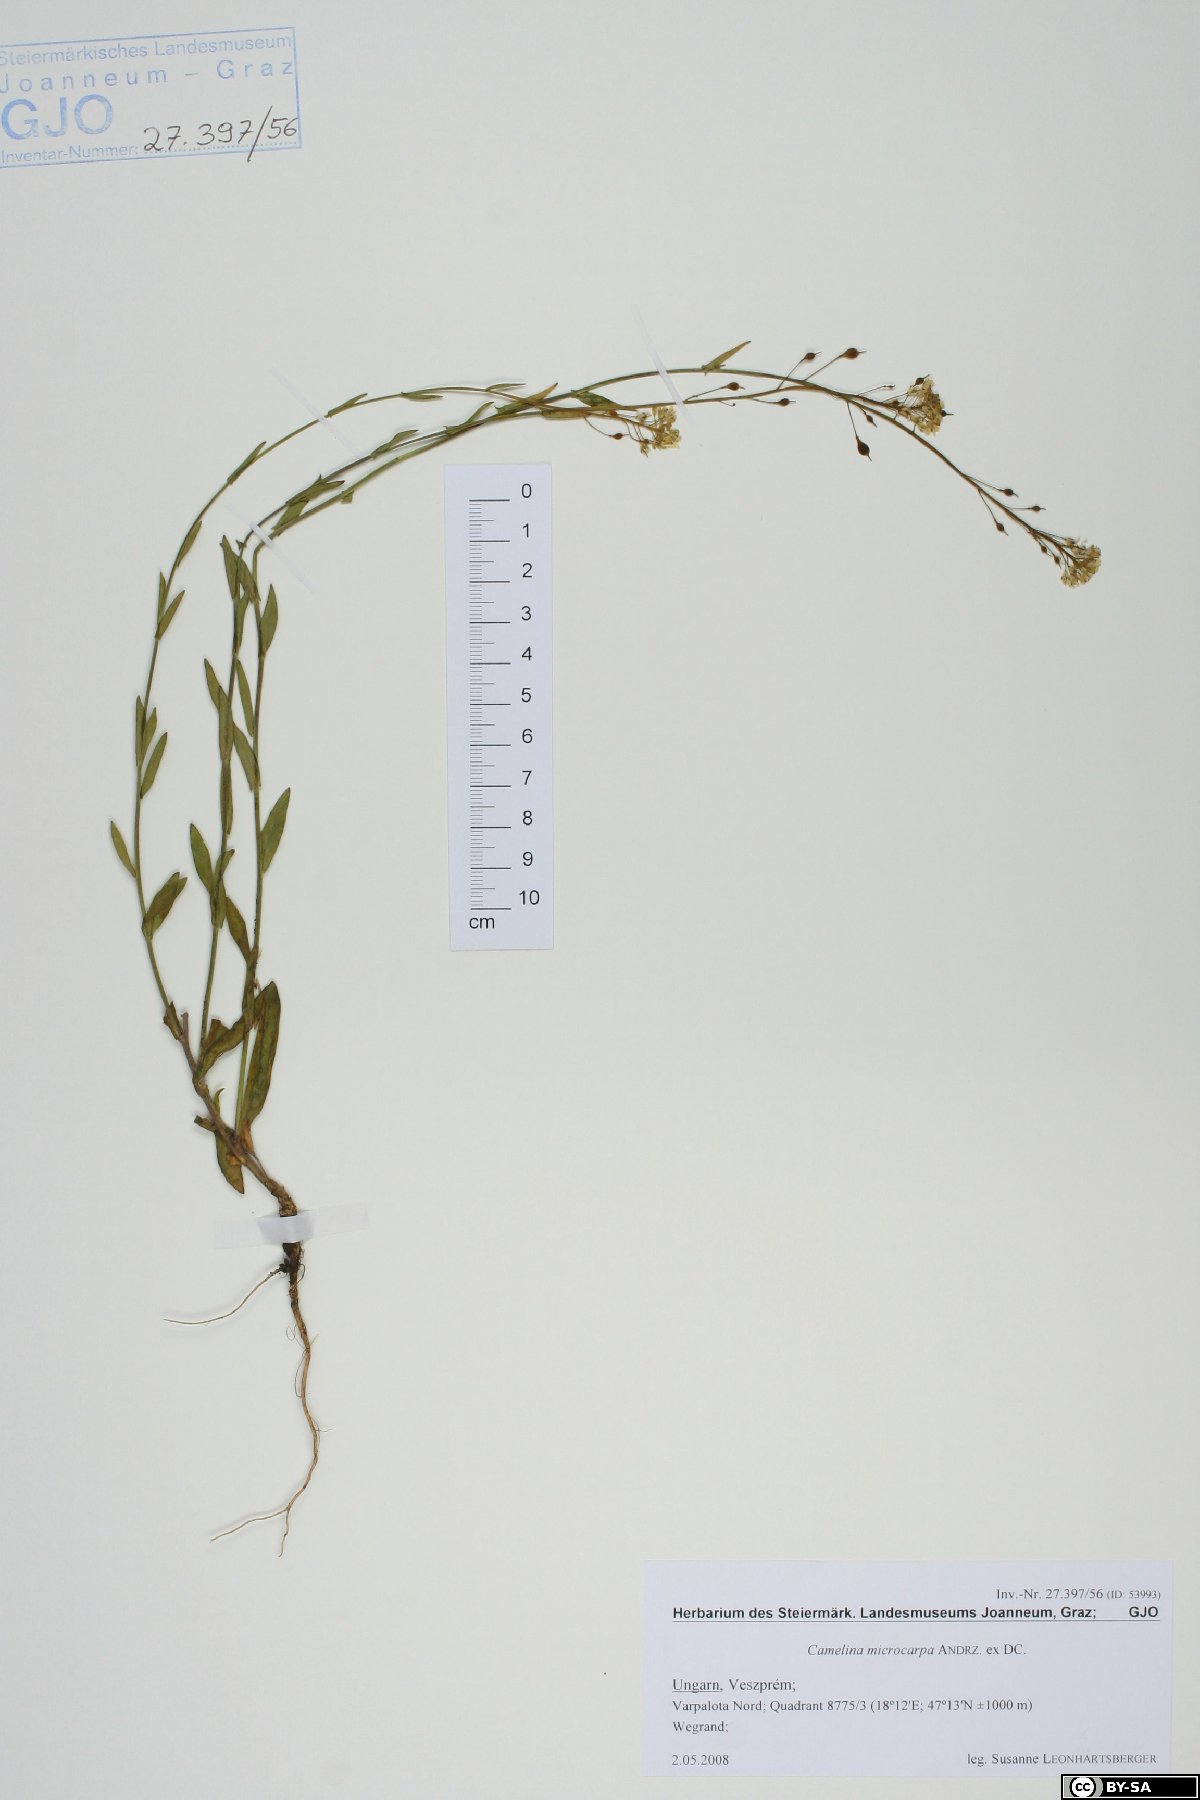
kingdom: Plantae
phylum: Tracheophyta
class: Magnoliopsida
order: Brassicales
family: Brassicaceae
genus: Camelina
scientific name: Camelina microcarpa
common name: Lesser gold-of-pleasure
